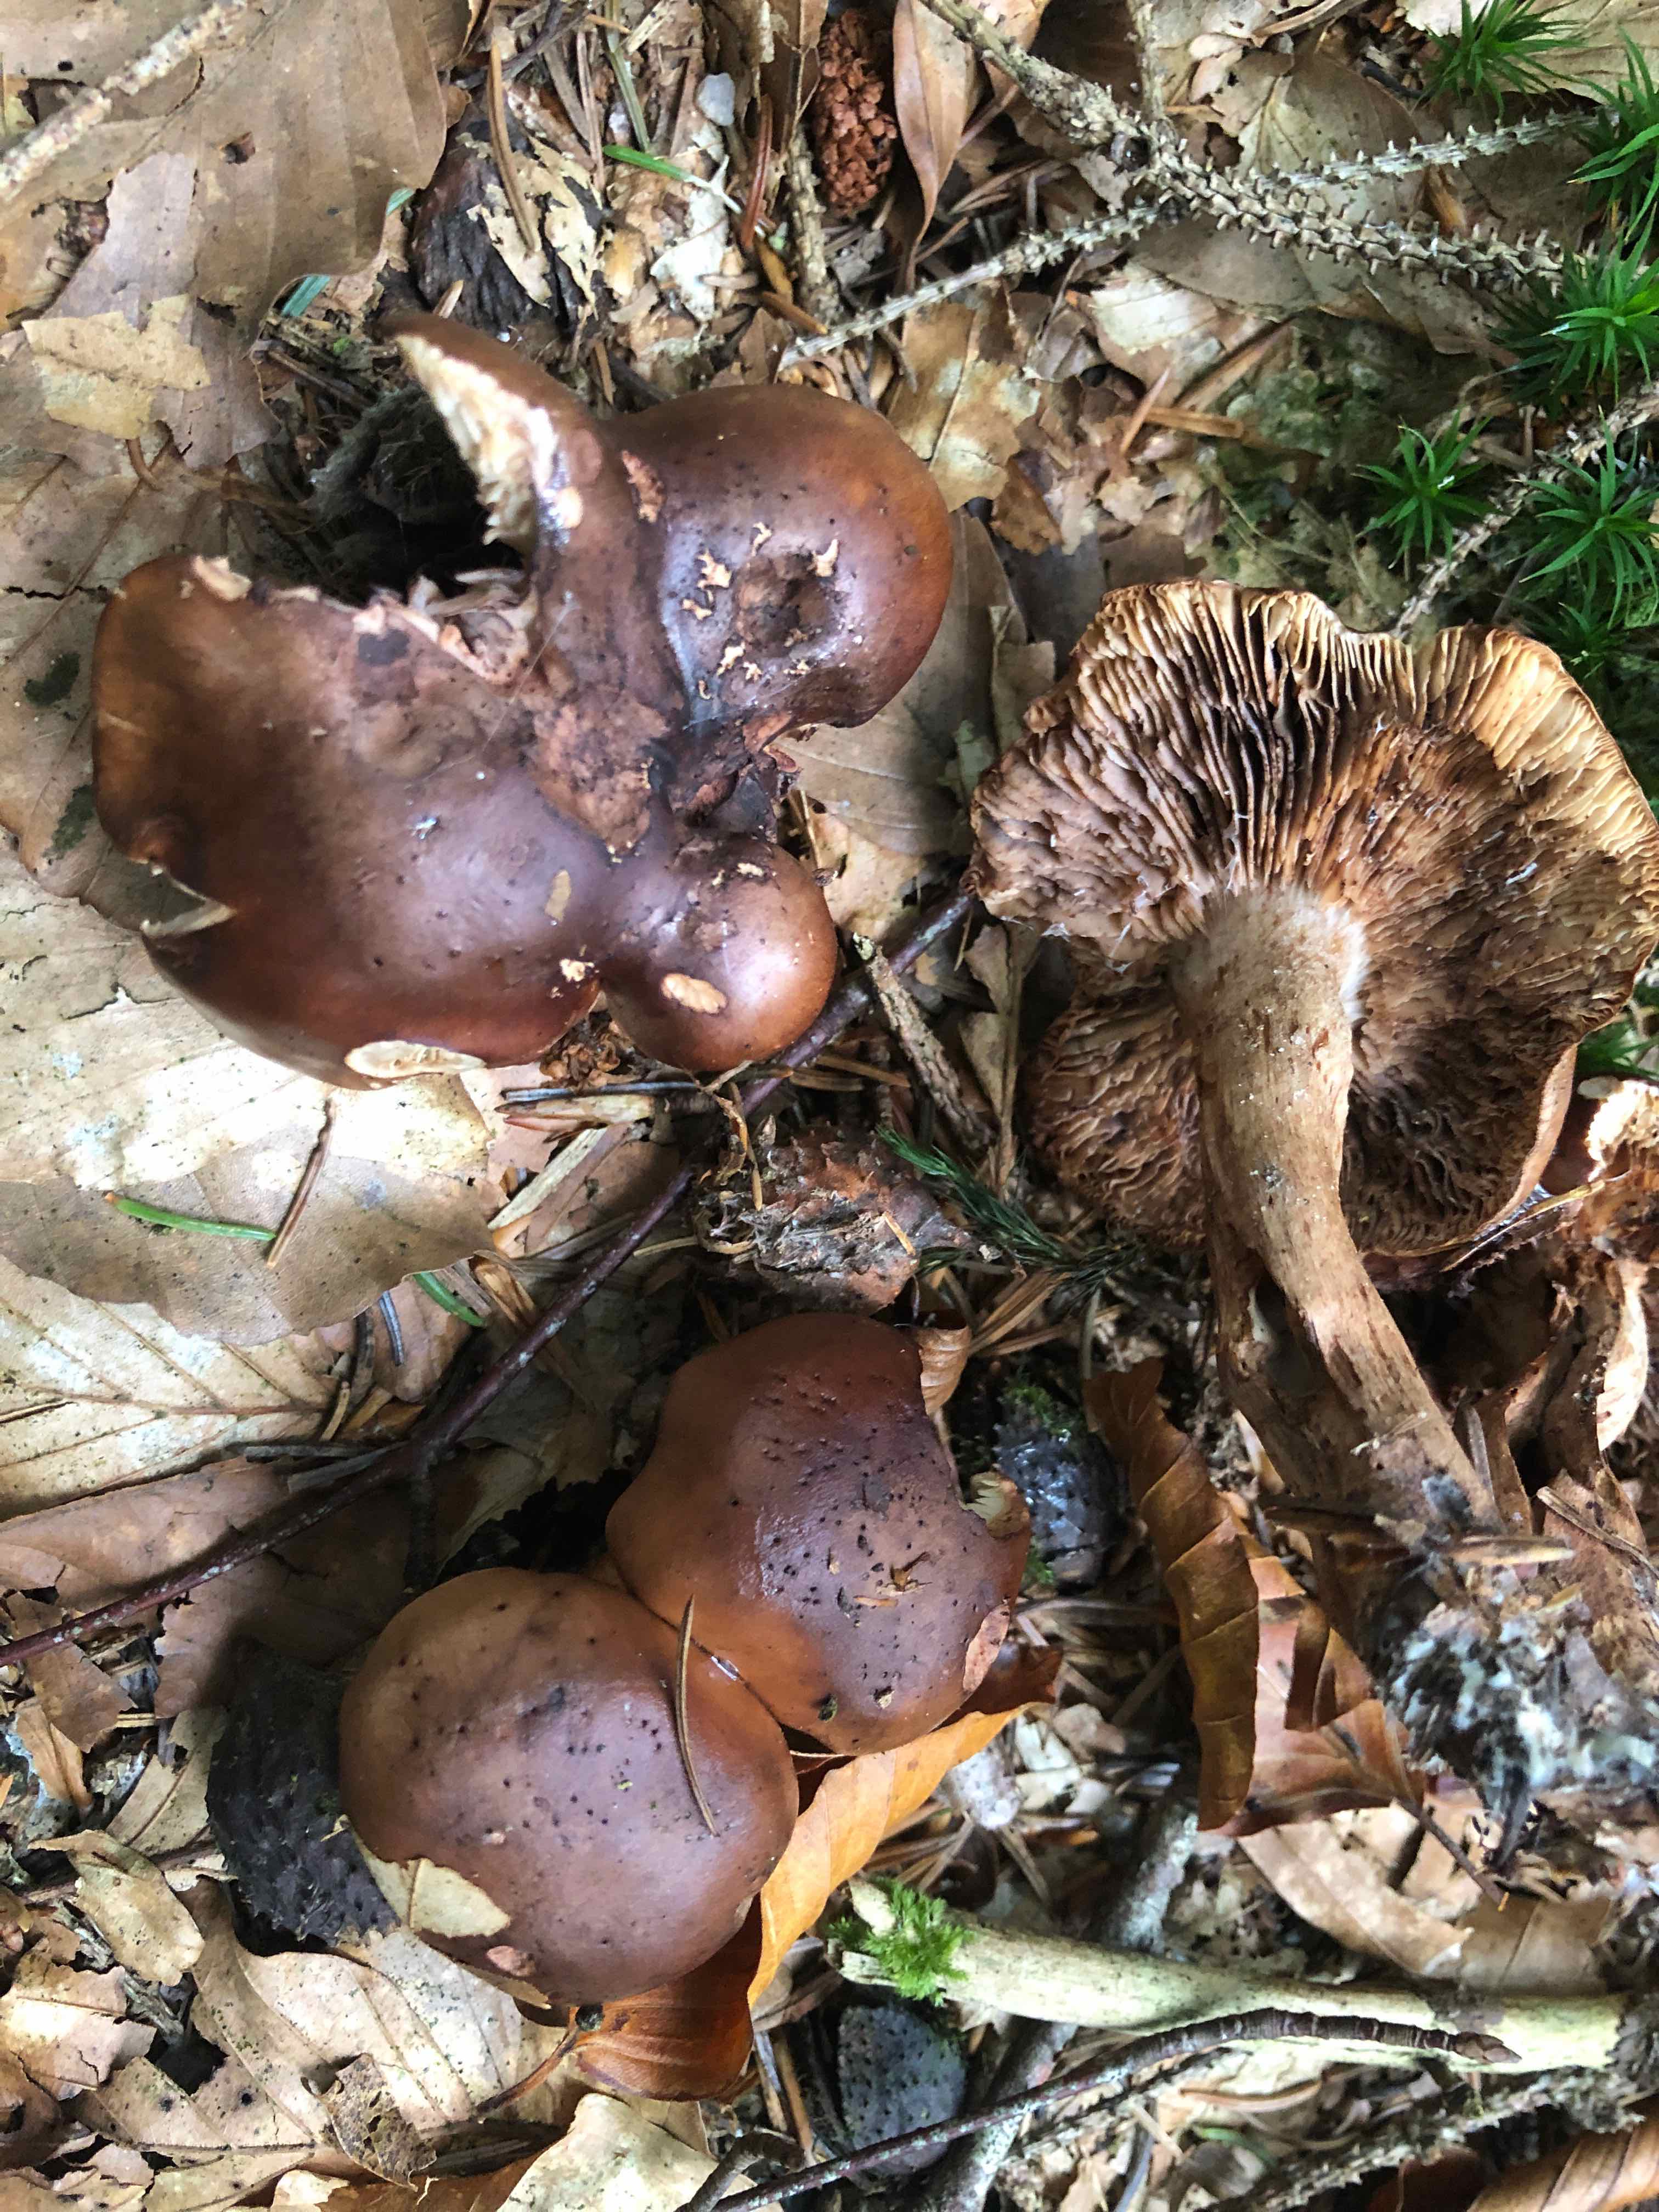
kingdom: Fungi
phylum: Basidiomycota
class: Agaricomycetes
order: Agaricales
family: Tricholomataceae
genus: Tricholoma
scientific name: Tricholoma ustale
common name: sveden ridderhat
